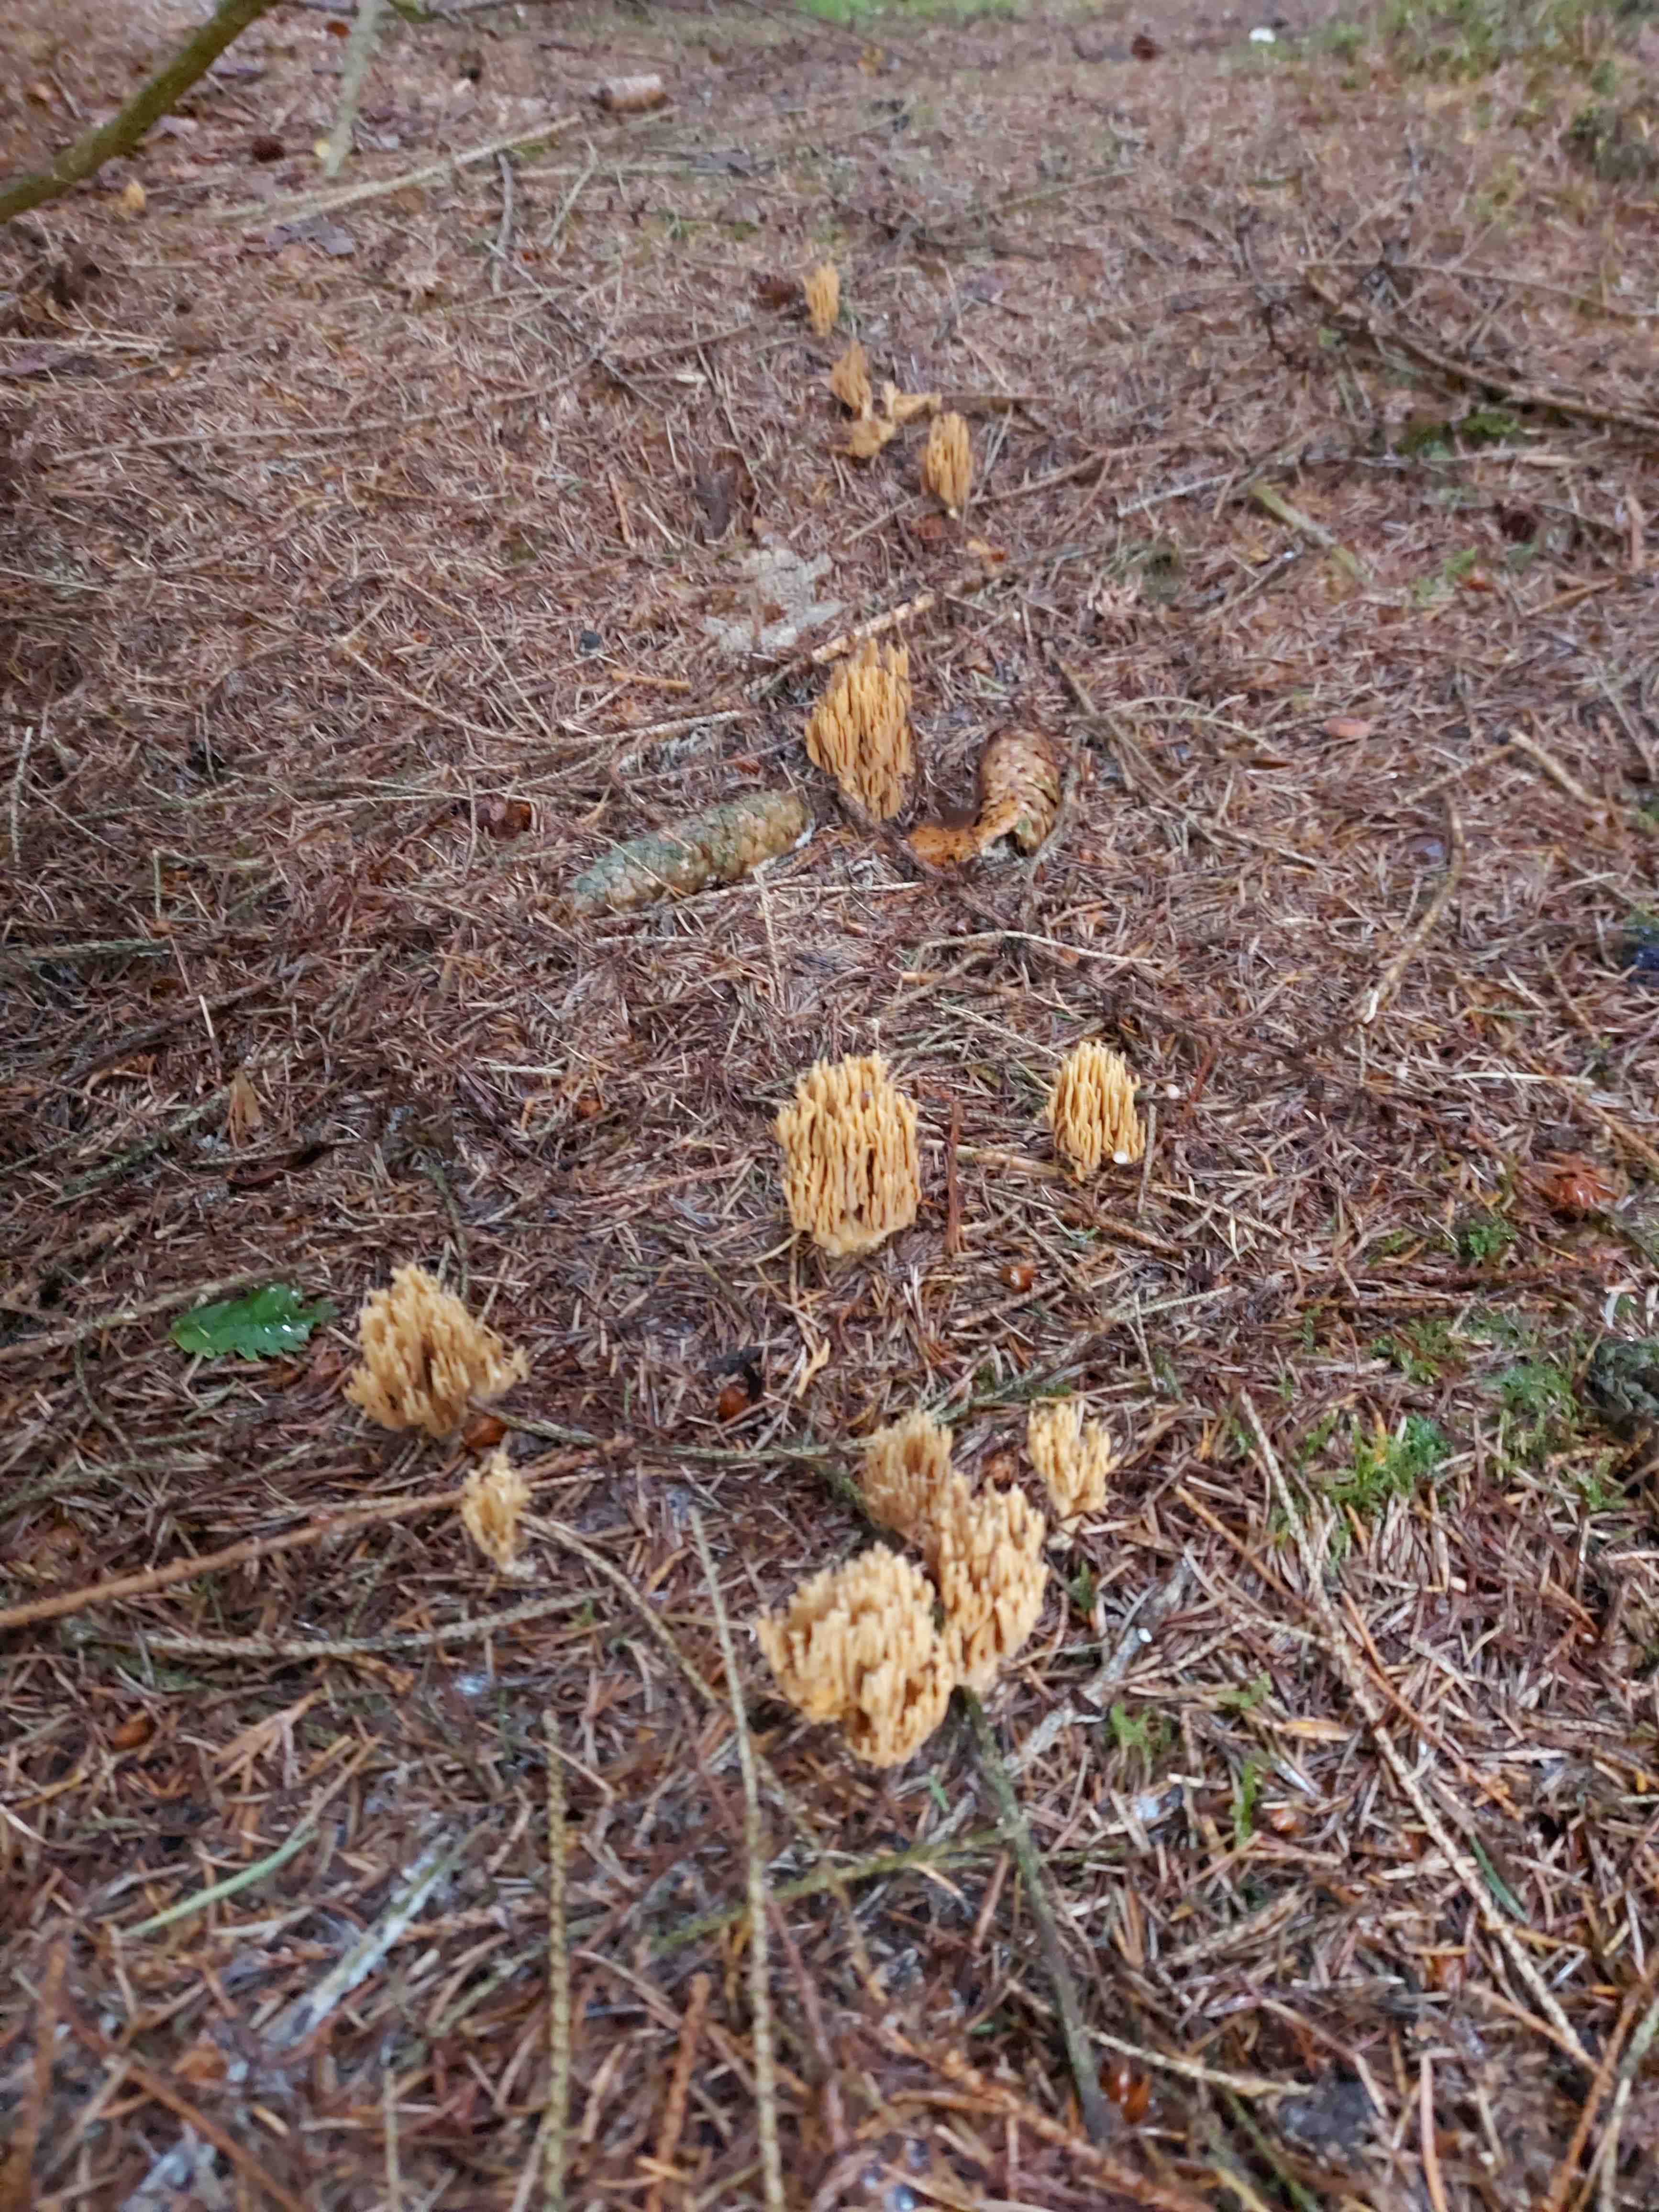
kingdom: Fungi
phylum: Basidiomycota
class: Agaricomycetes
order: Gomphales
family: Gomphaceae
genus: Phaeoclavulina
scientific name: Phaeoclavulina eumorpha
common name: gran-koralsvamp
